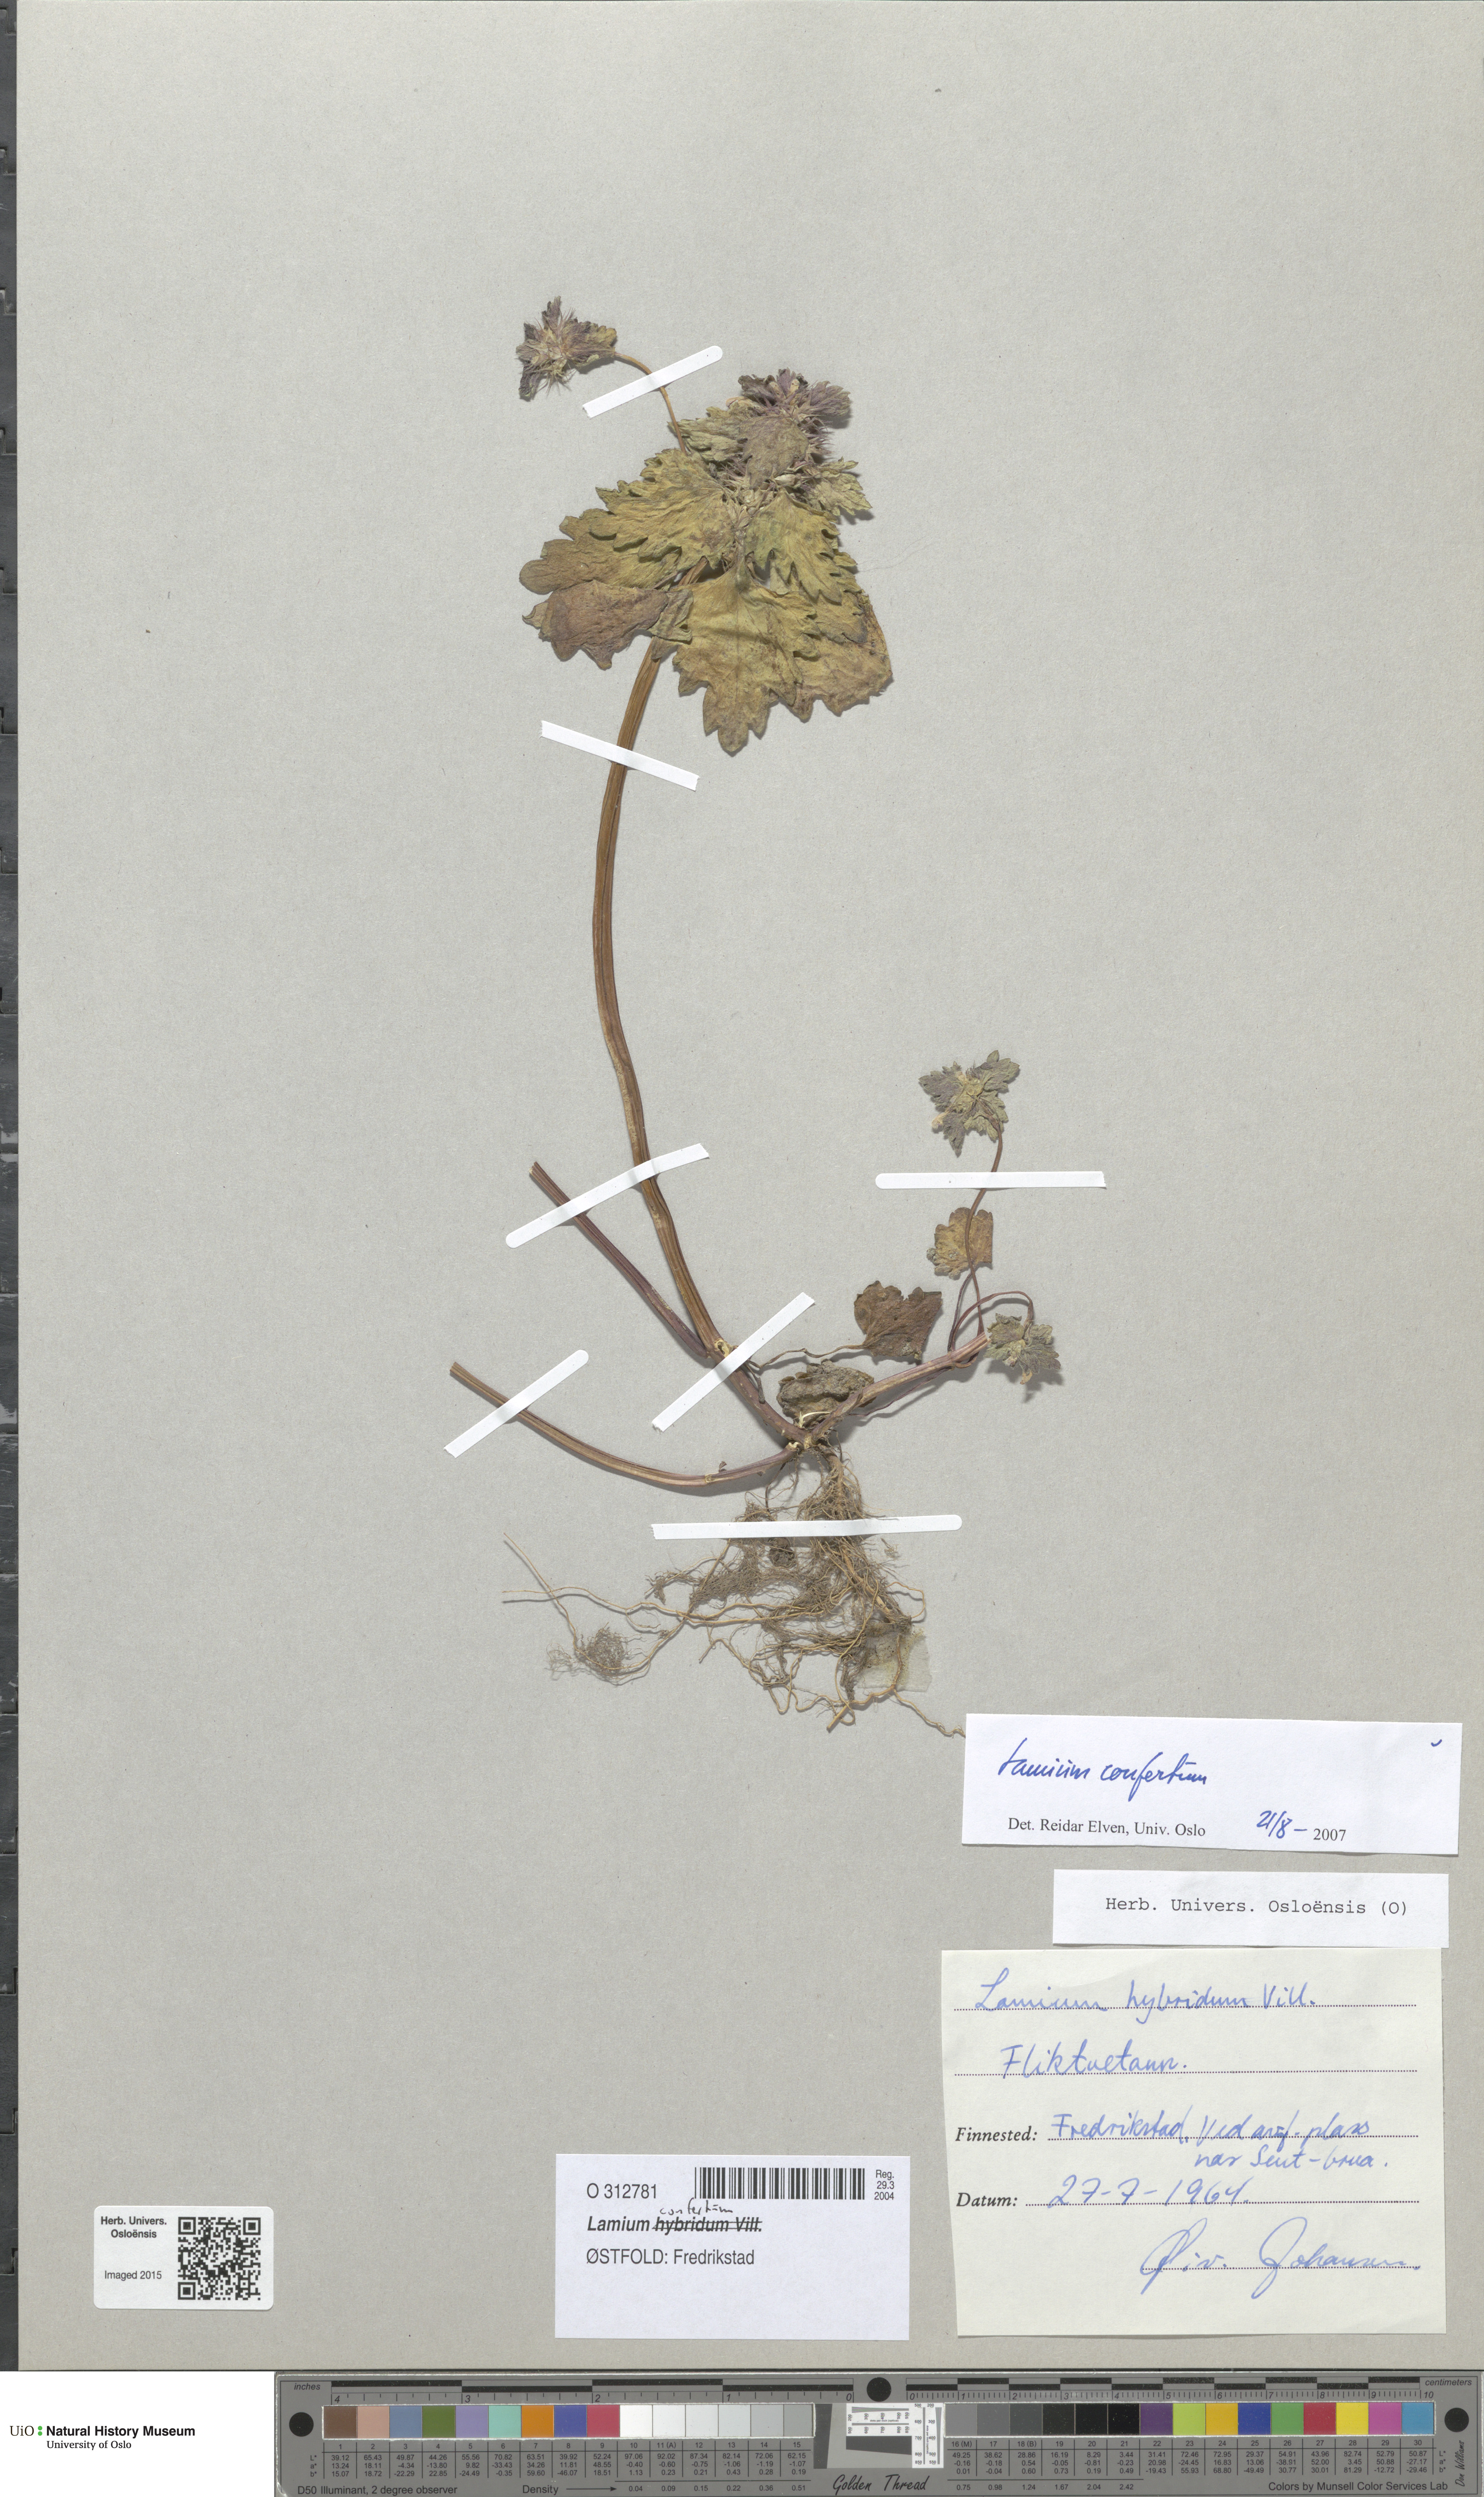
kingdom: Plantae
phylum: Tracheophyta
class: Magnoliopsida
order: Lamiales
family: Lamiaceae
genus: Lamium
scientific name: Lamium confertum
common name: Northern dead-nettle
